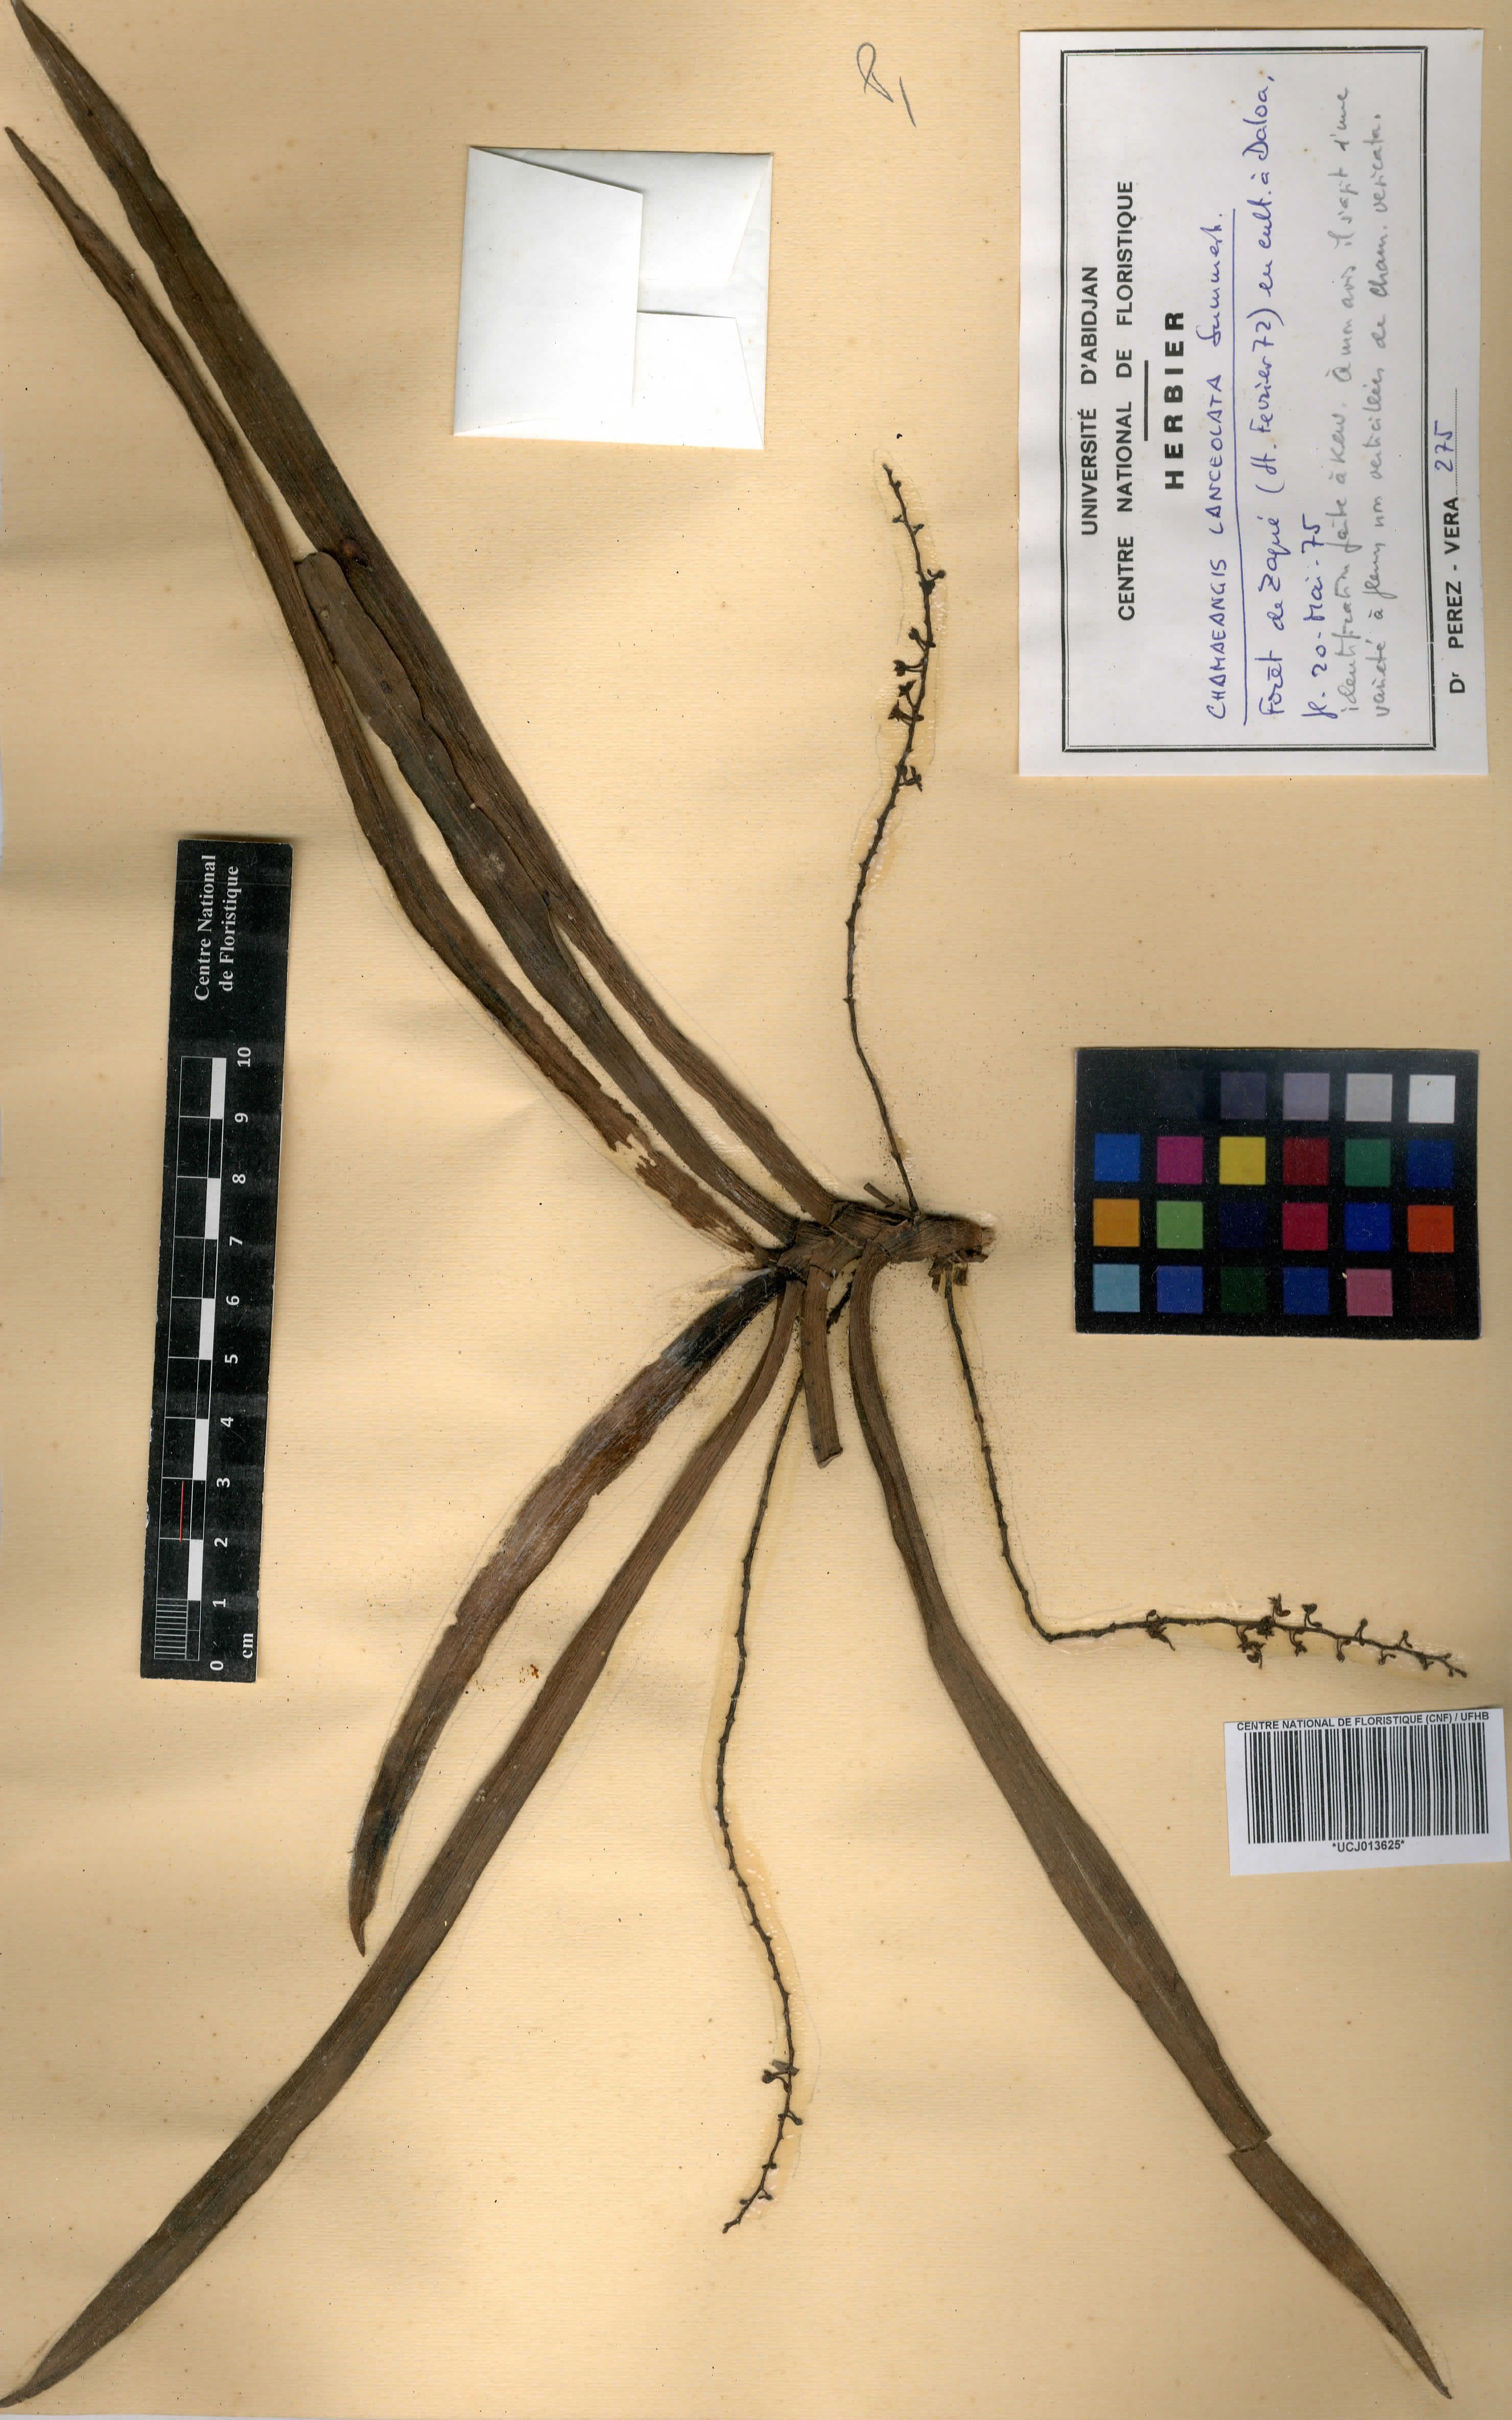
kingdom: Plantae
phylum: Tracheophyta
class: Liliopsida
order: Asparagales
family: Orchidaceae
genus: Diaphananthe
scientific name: Diaphananthe lanceolata
